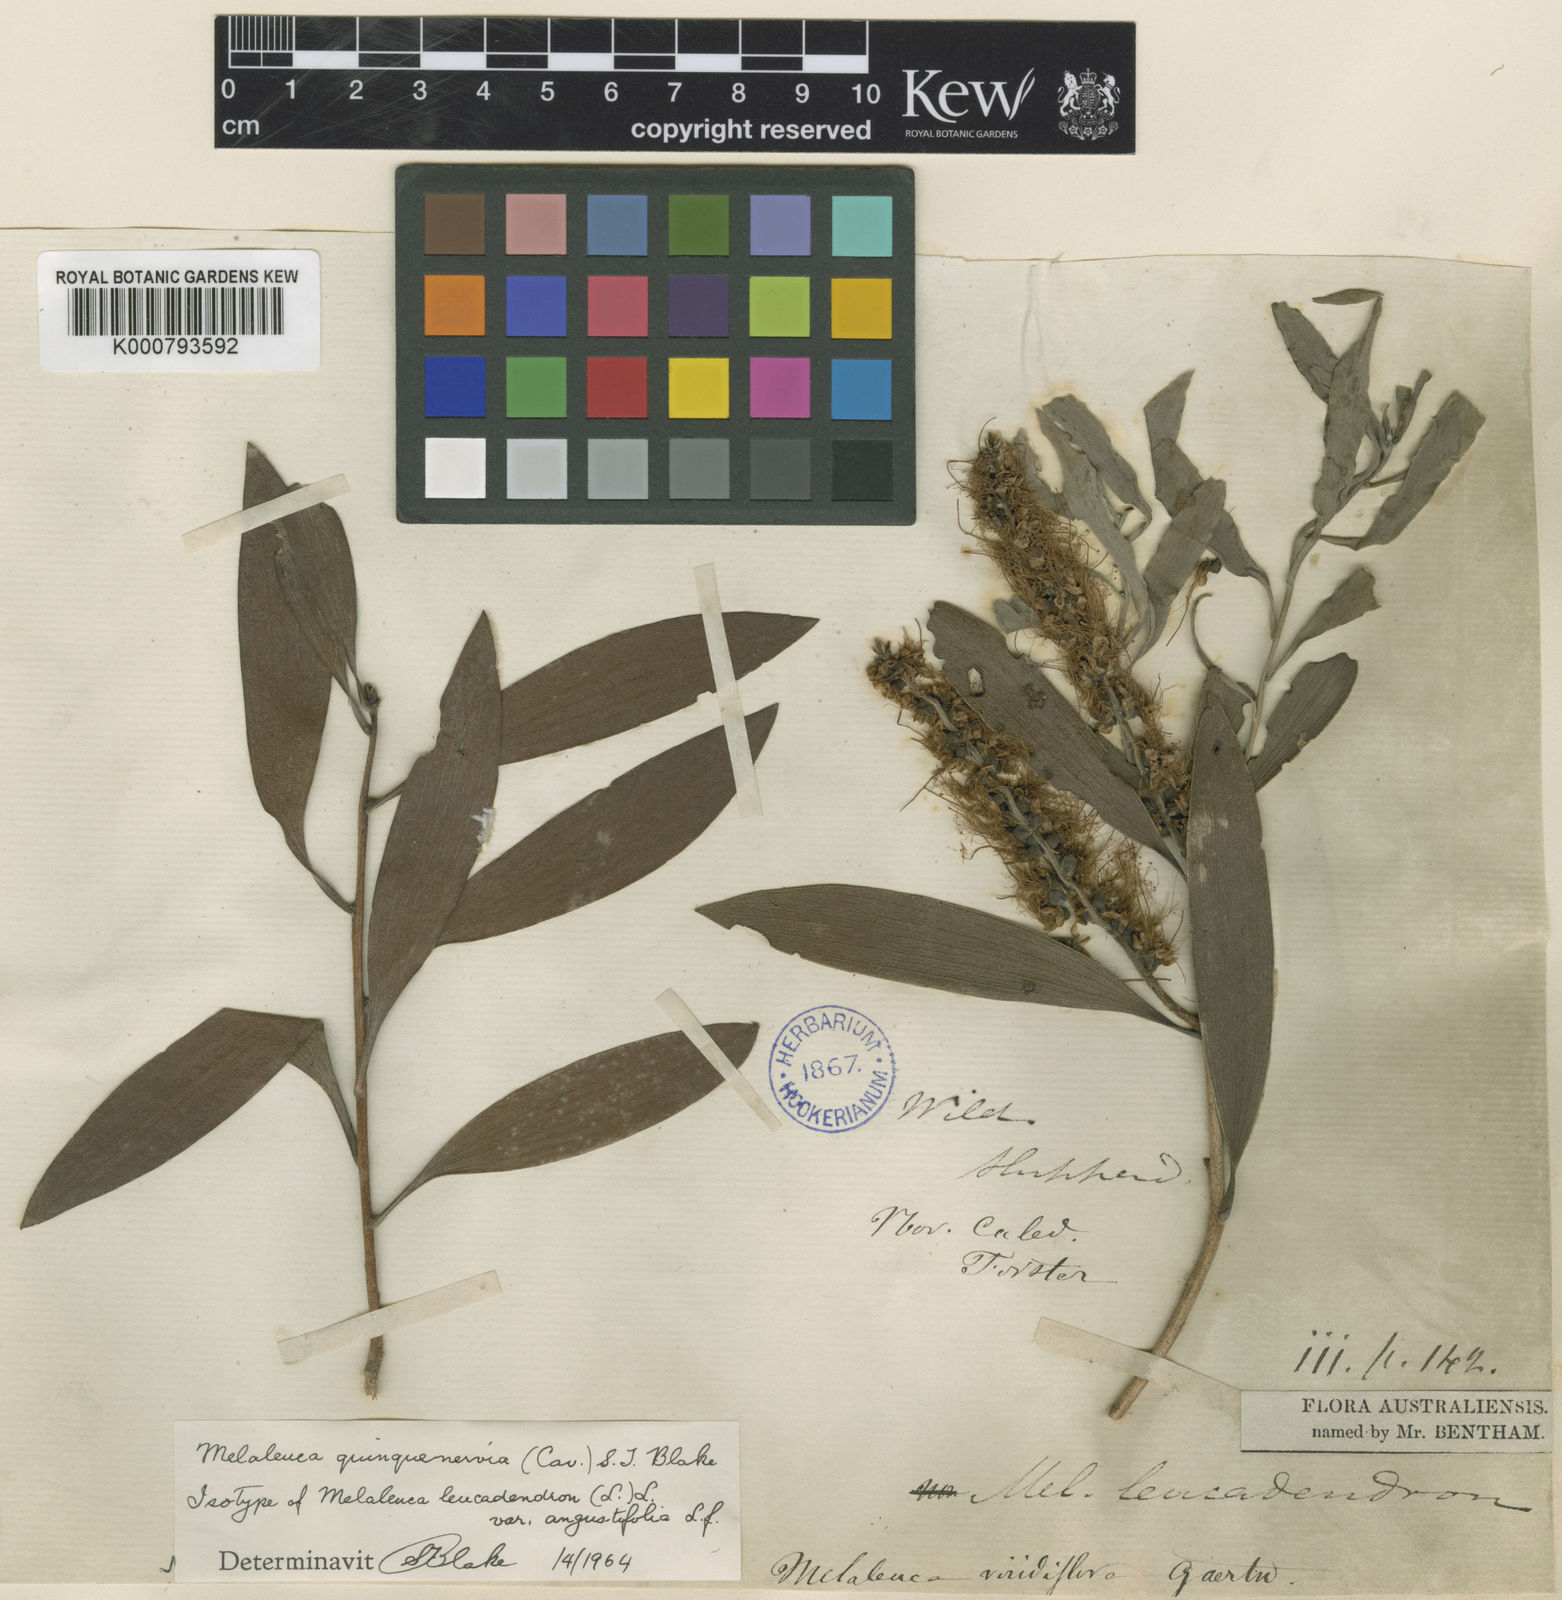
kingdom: Plantae
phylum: Tracheophyta
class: Magnoliopsida
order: Myrtales
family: Myrtaceae
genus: Melaleuca
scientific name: Melaleuca quinquenervia
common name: Punktree
